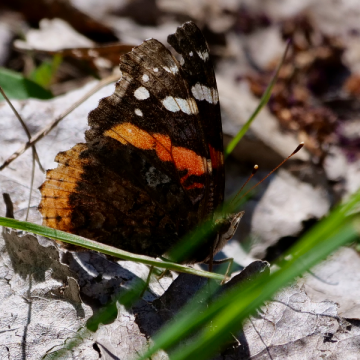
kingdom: Animalia
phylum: Arthropoda
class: Insecta
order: Lepidoptera
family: Nymphalidae
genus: Vanessa
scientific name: Vanessa atalanta
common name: Red Admiral
